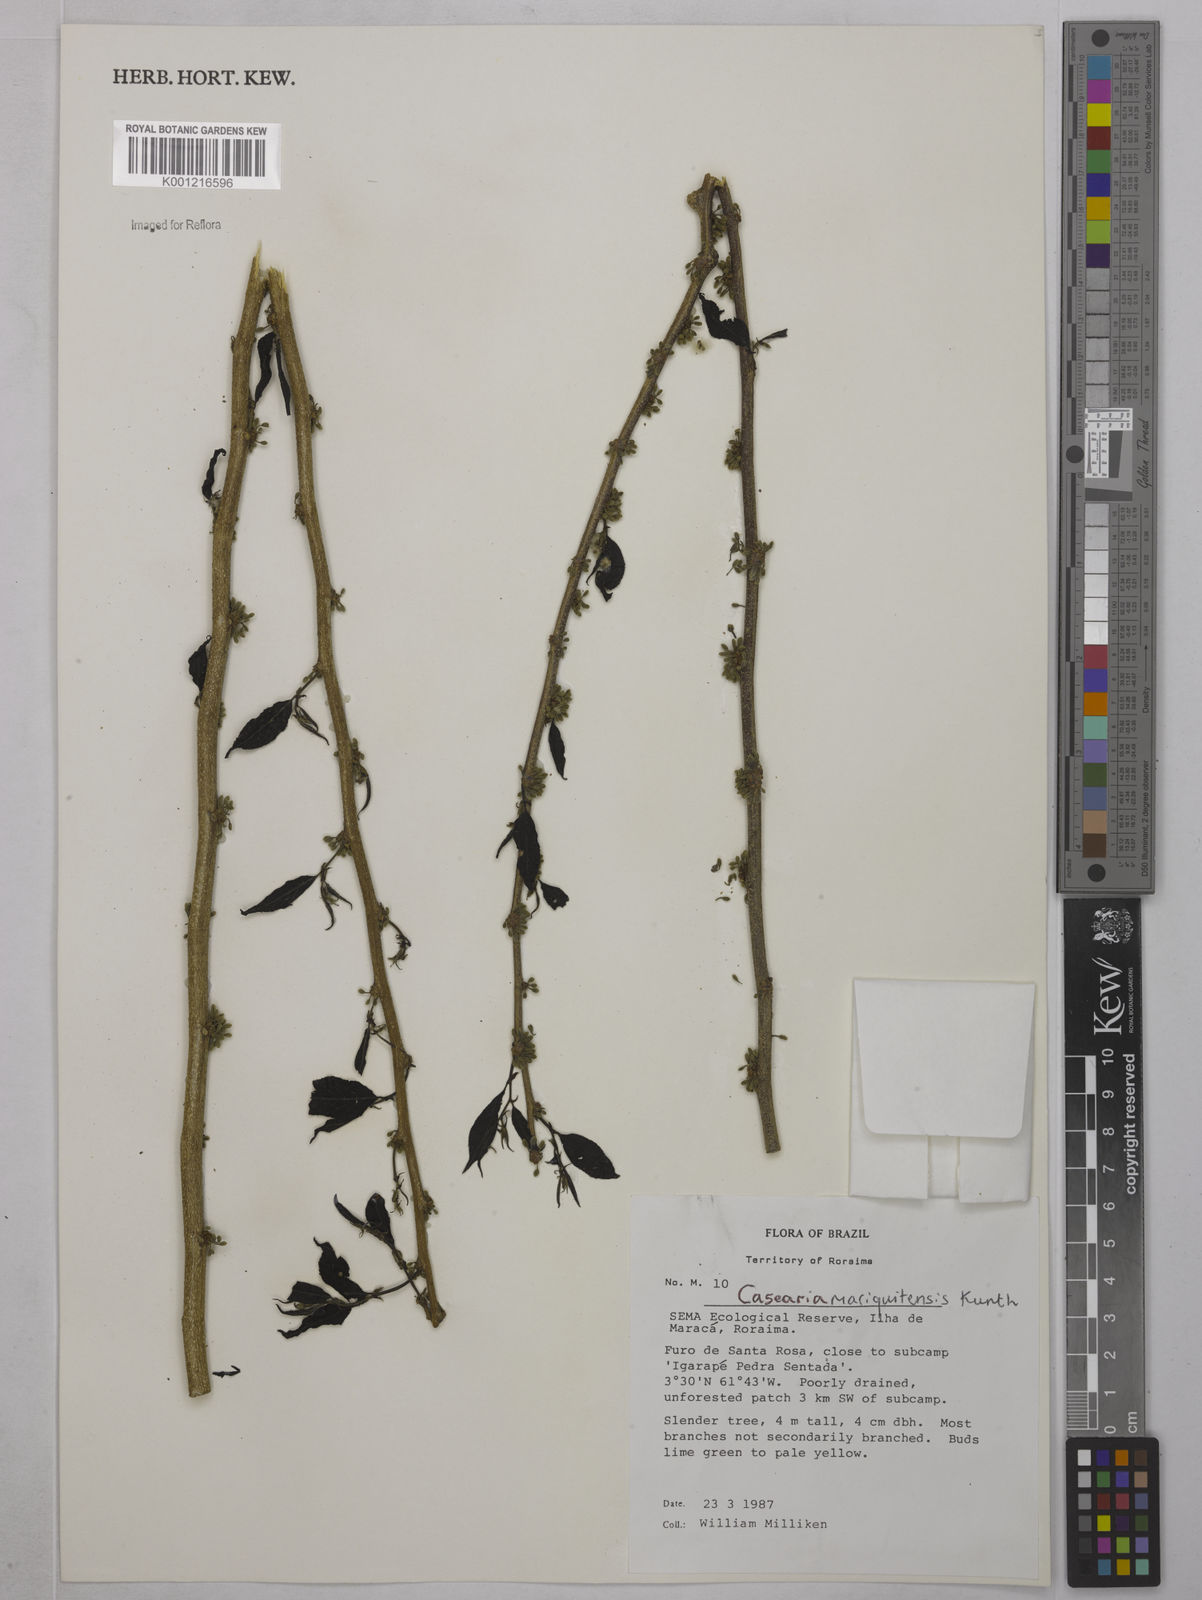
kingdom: Plantae
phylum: Tracheophyta
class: Magnoliopsida
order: Malpighiales
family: Salicaceae
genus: Casearia
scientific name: Casearia mariquitensis
